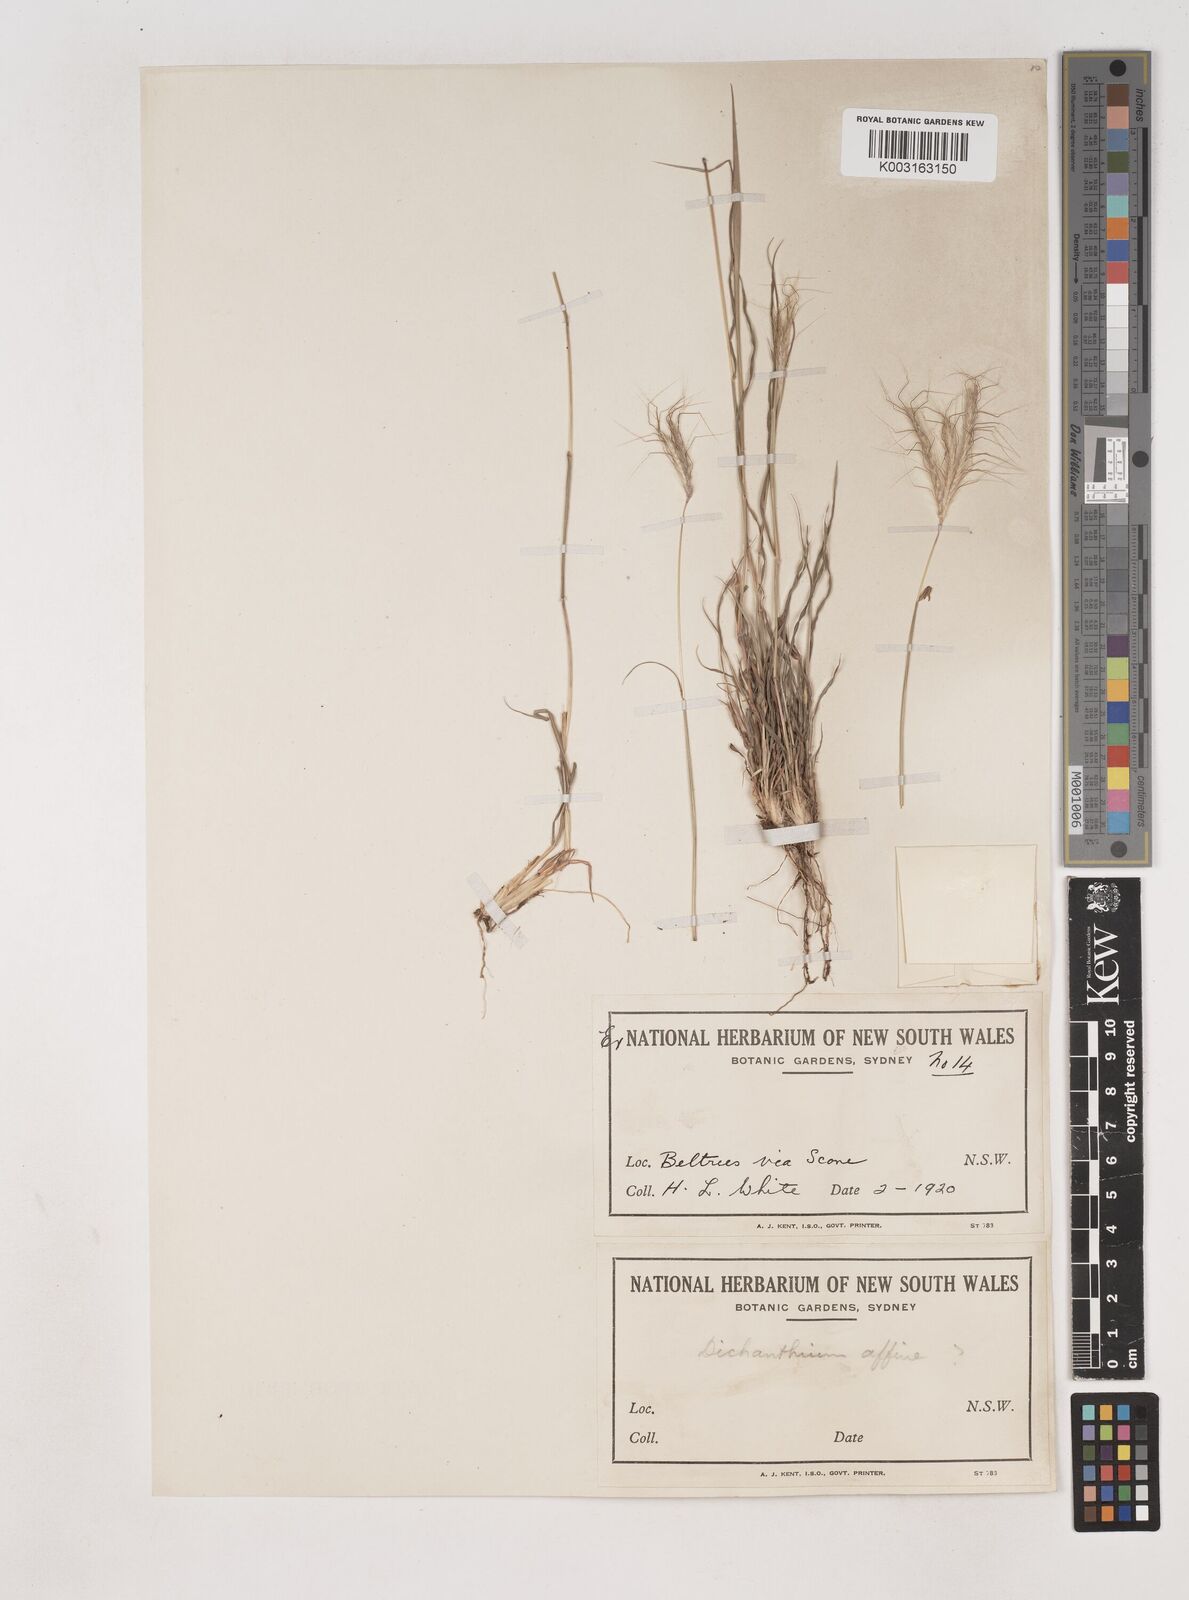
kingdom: Plantae
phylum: Tracheophyta
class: Liliopsida
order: Poales
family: Poaceae
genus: Dichanthium
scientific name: Dichanthium sericeum
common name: Silky bluestem
